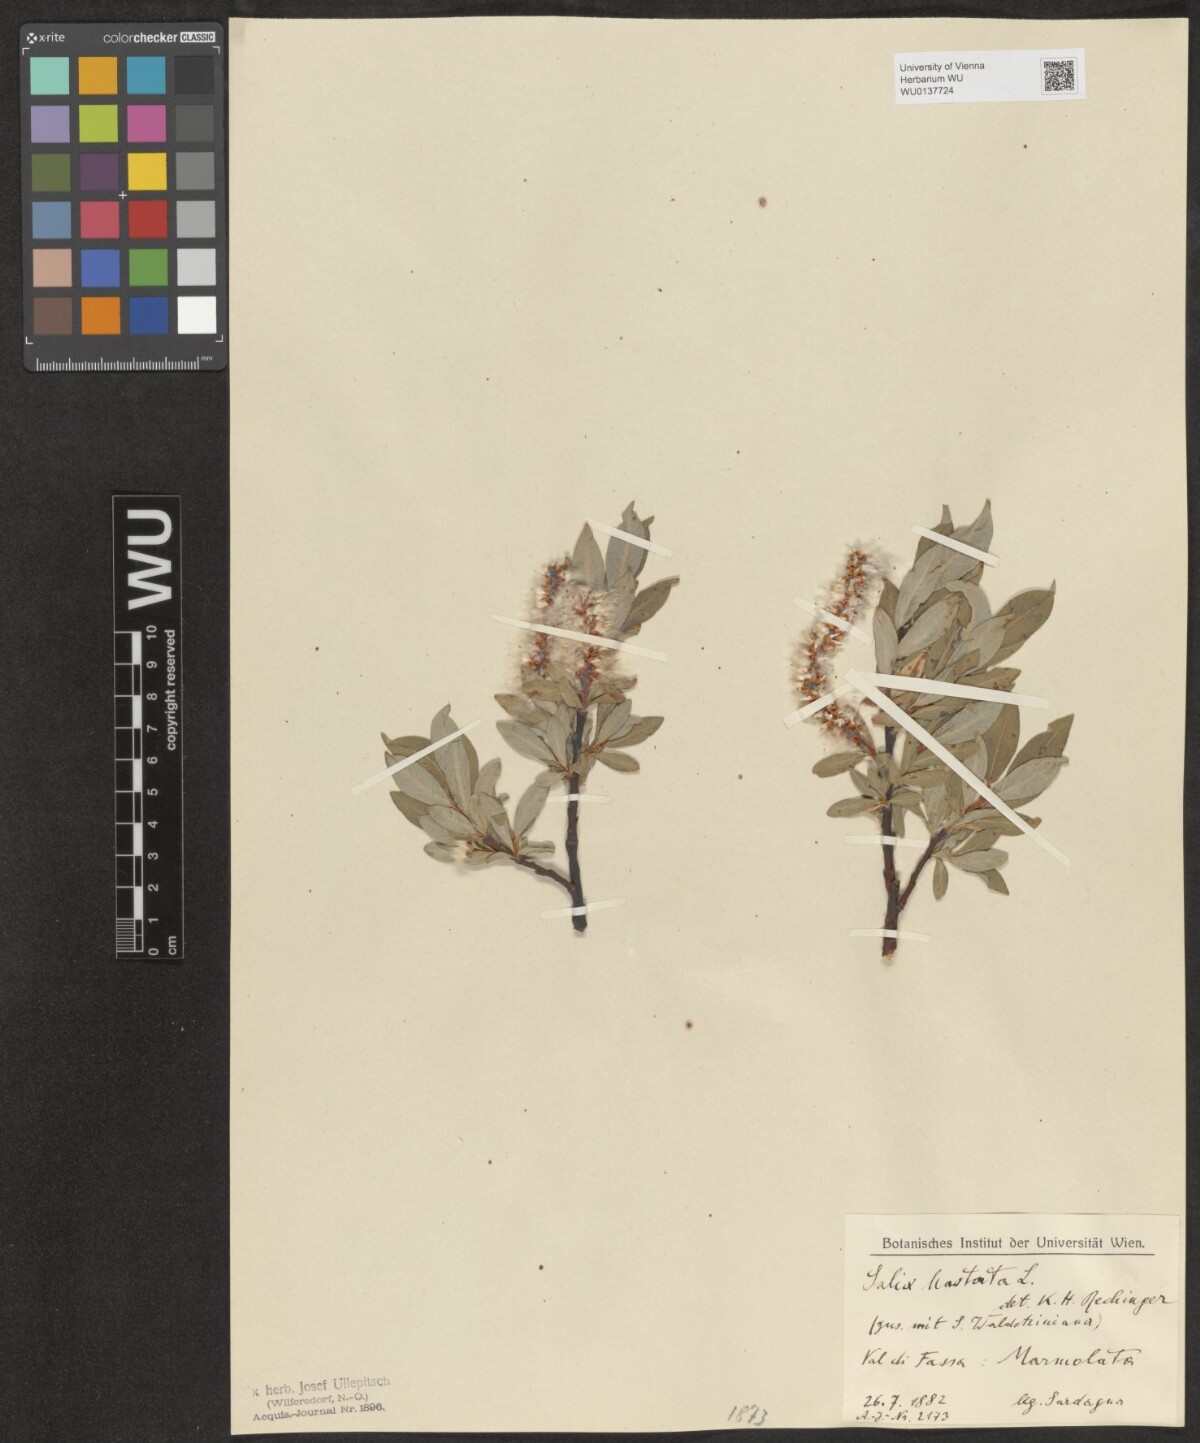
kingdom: Plantae
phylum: Tracheophyta
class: Magnoliopsida
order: Malpighiales
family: Salicaceae
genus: Salix
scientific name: Salix hastata
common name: Halberd willow
